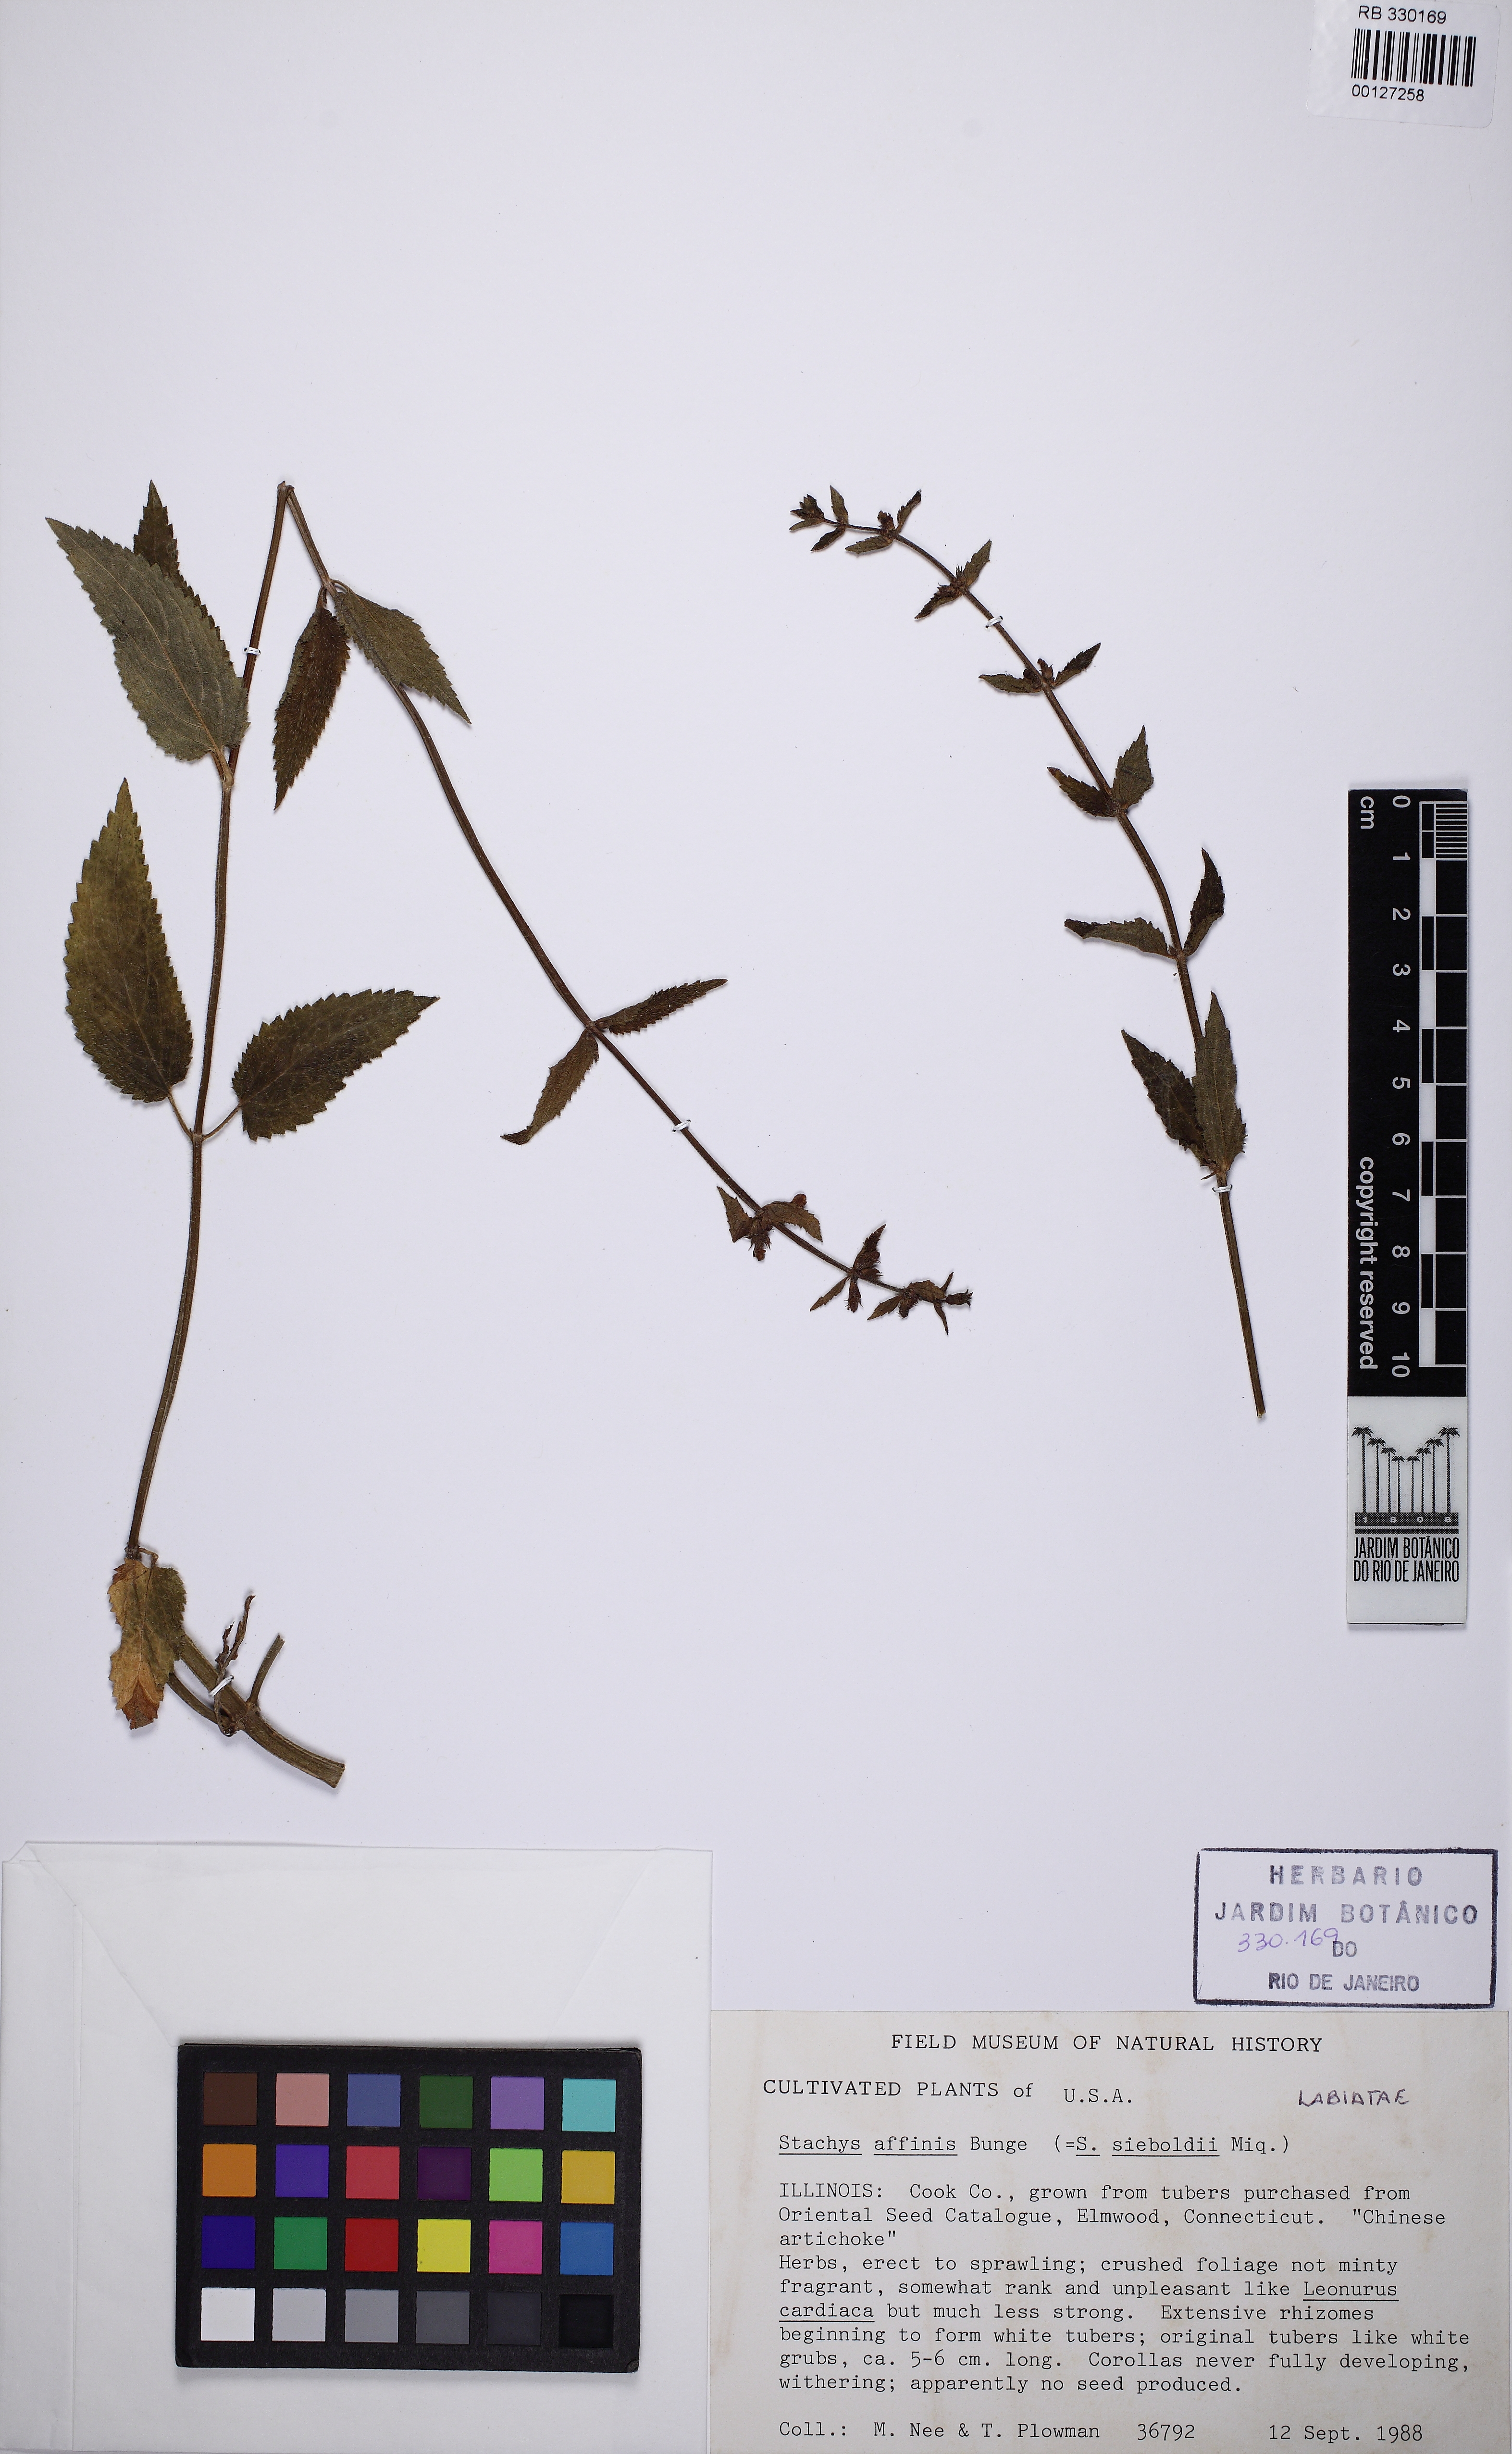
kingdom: Plantae
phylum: Tracheophyta
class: Magnoliopsida
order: Lamiales
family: Lamiaceae
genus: Stachys
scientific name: Stachys affinis
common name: Chinese-artichoke
